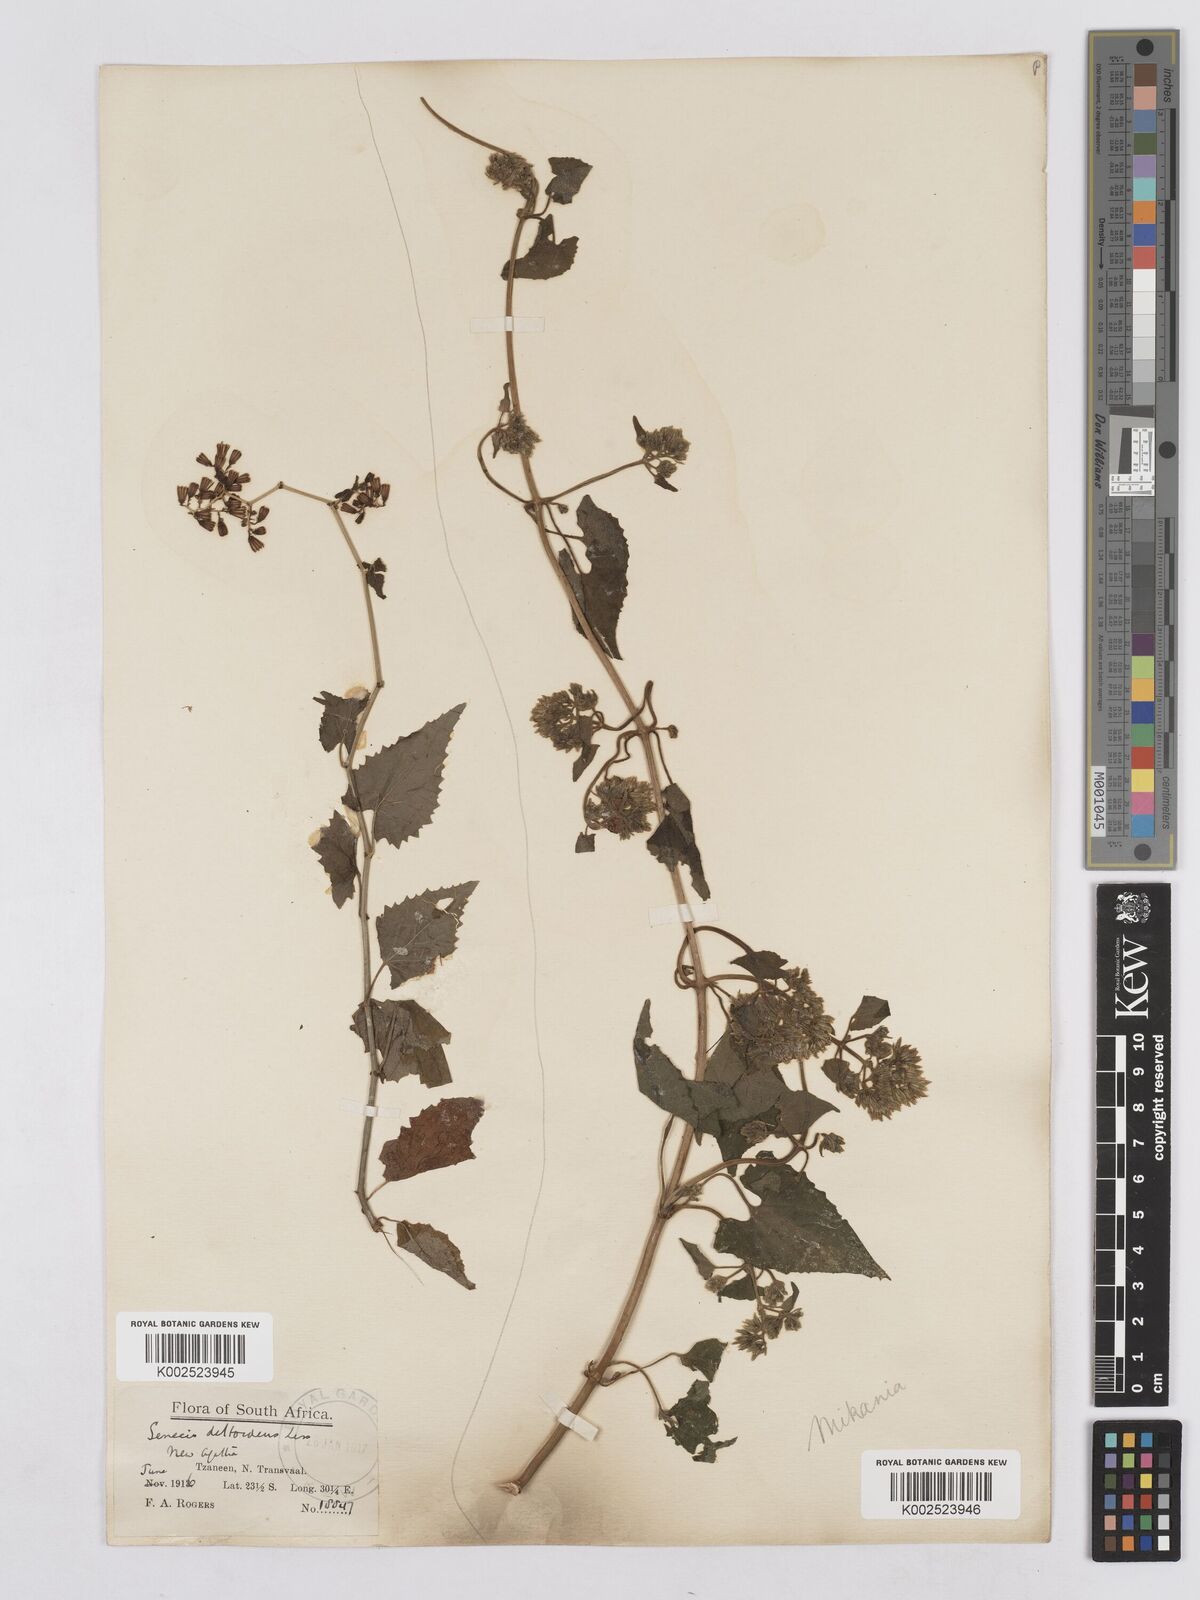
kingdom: Plantae
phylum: Tracheophyta
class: Magnoliopsida
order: Asterales
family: Asteraceae
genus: Senecio
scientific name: Senecio deltoideus
